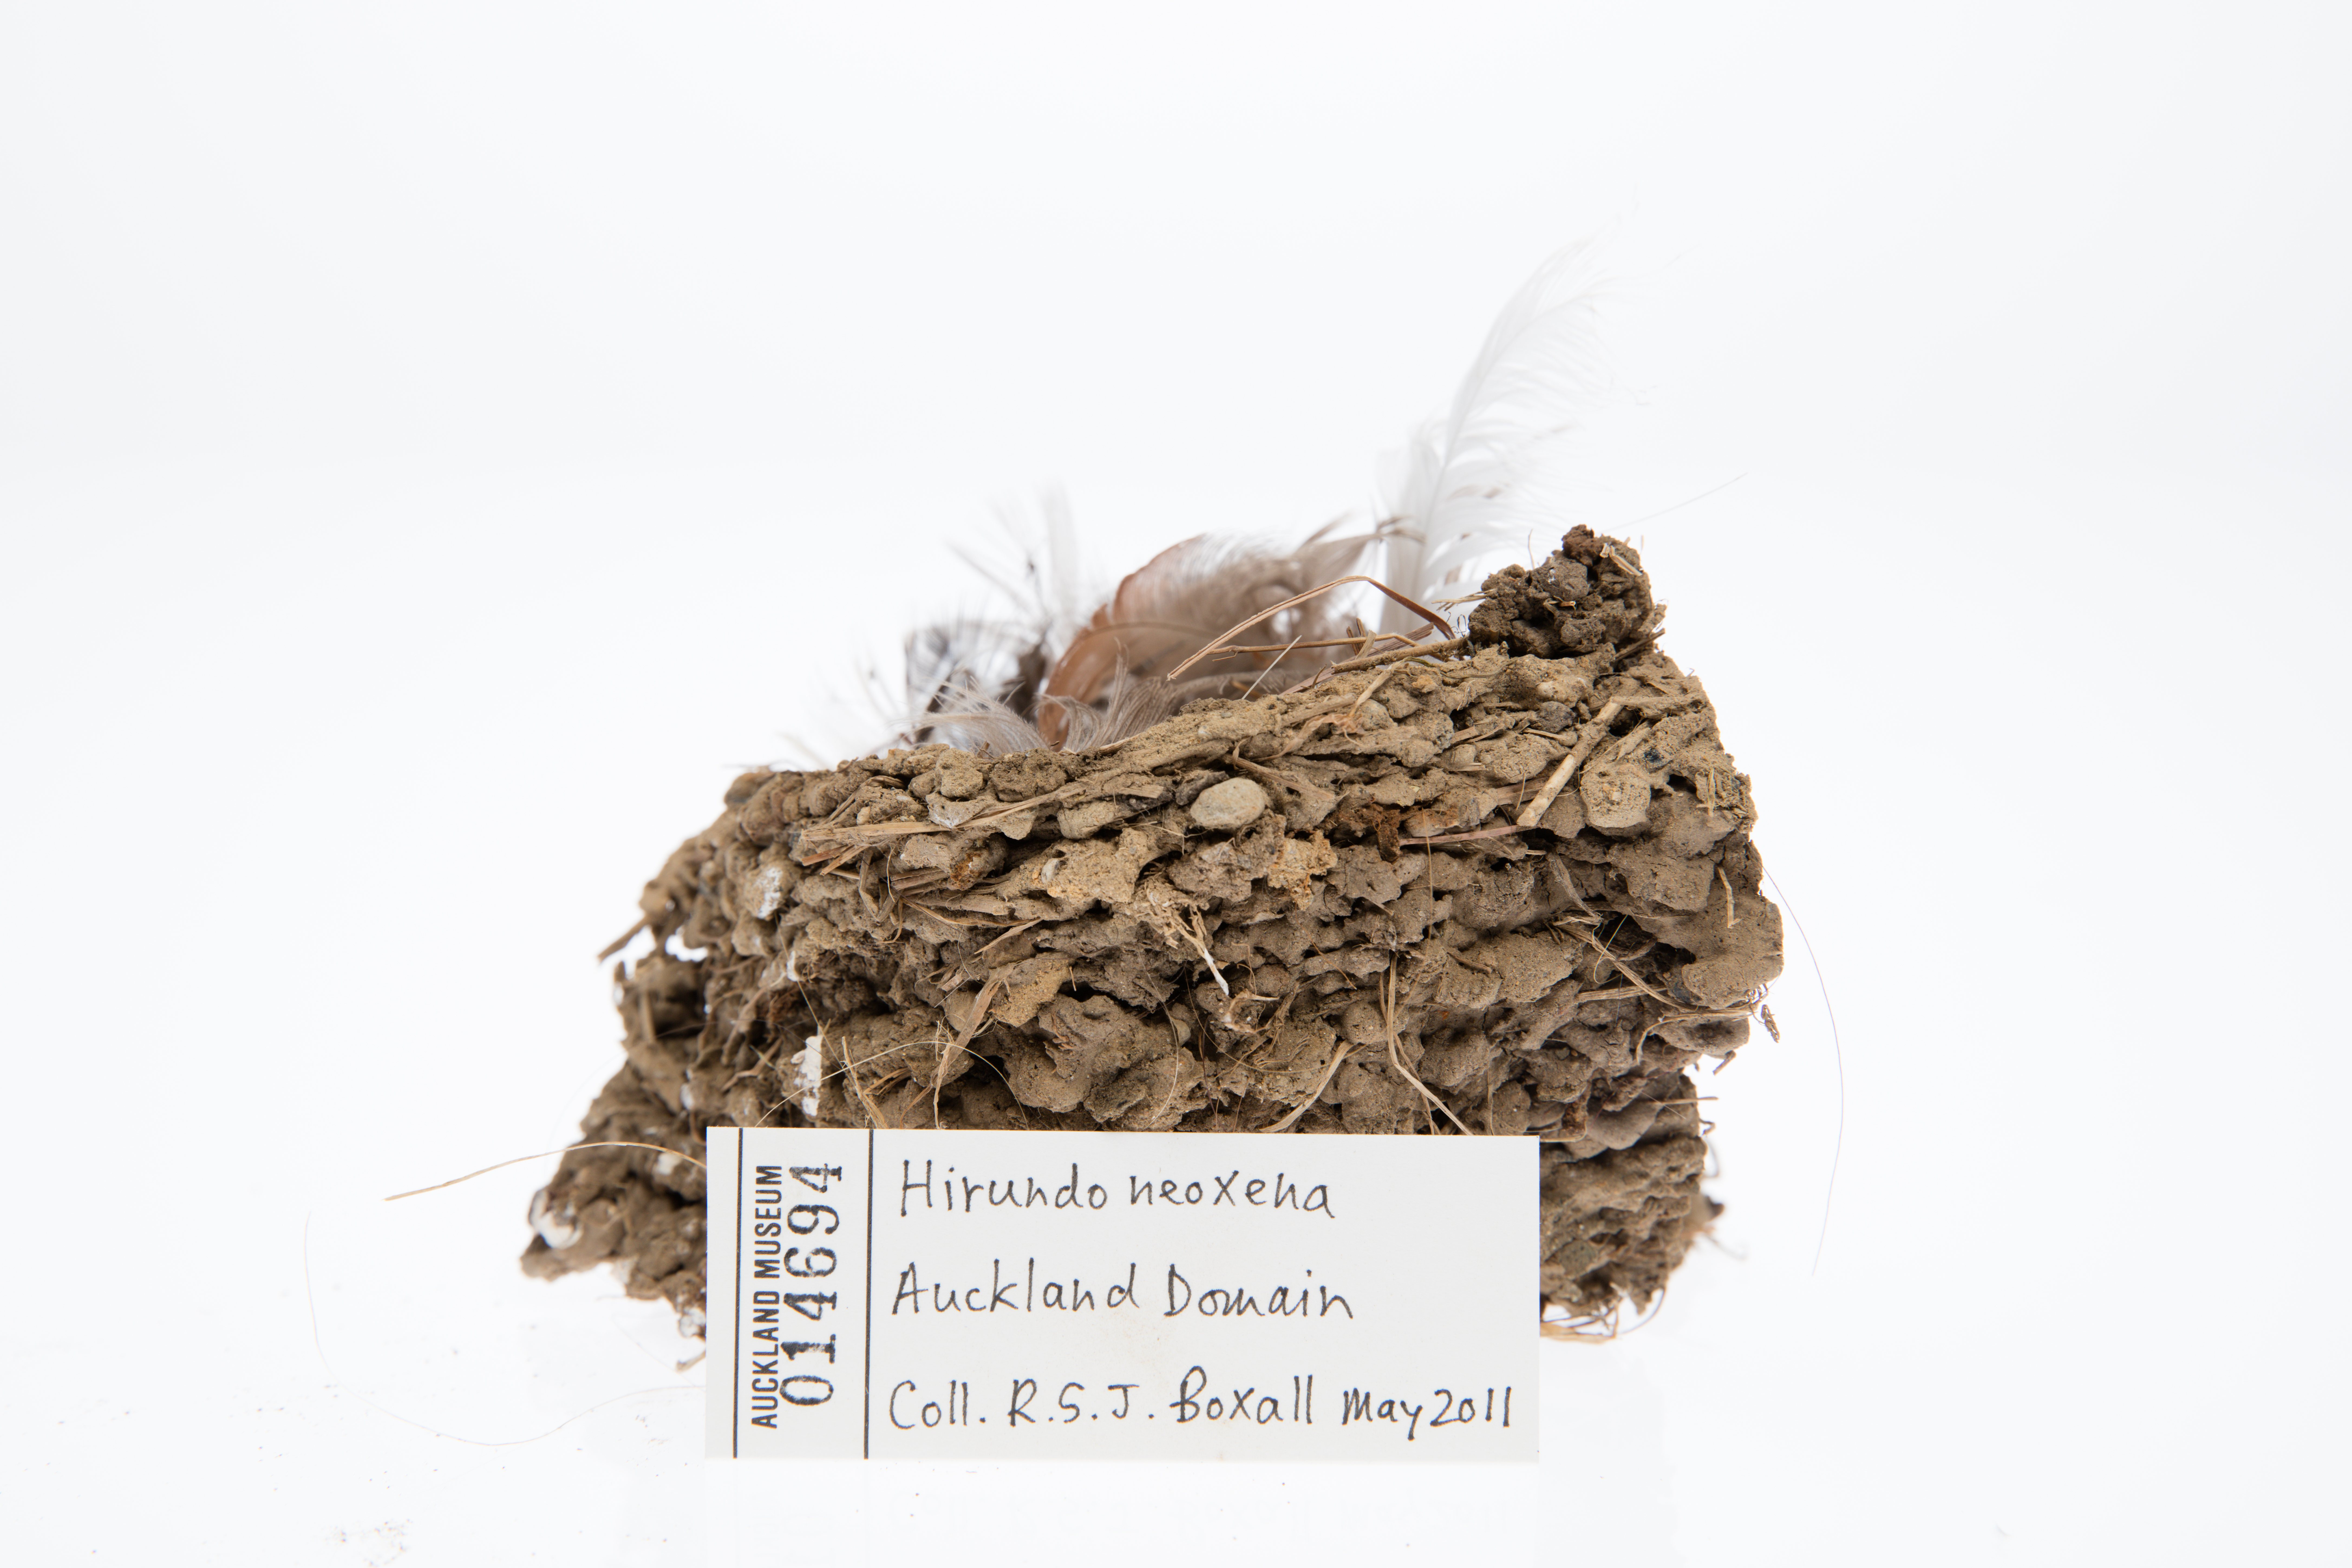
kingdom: Animalia
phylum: Chordata
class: Aves
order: Passeriformes
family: Hirundinidae
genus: Hirundo
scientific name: Hirundo neoxena
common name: Welcome swallow
